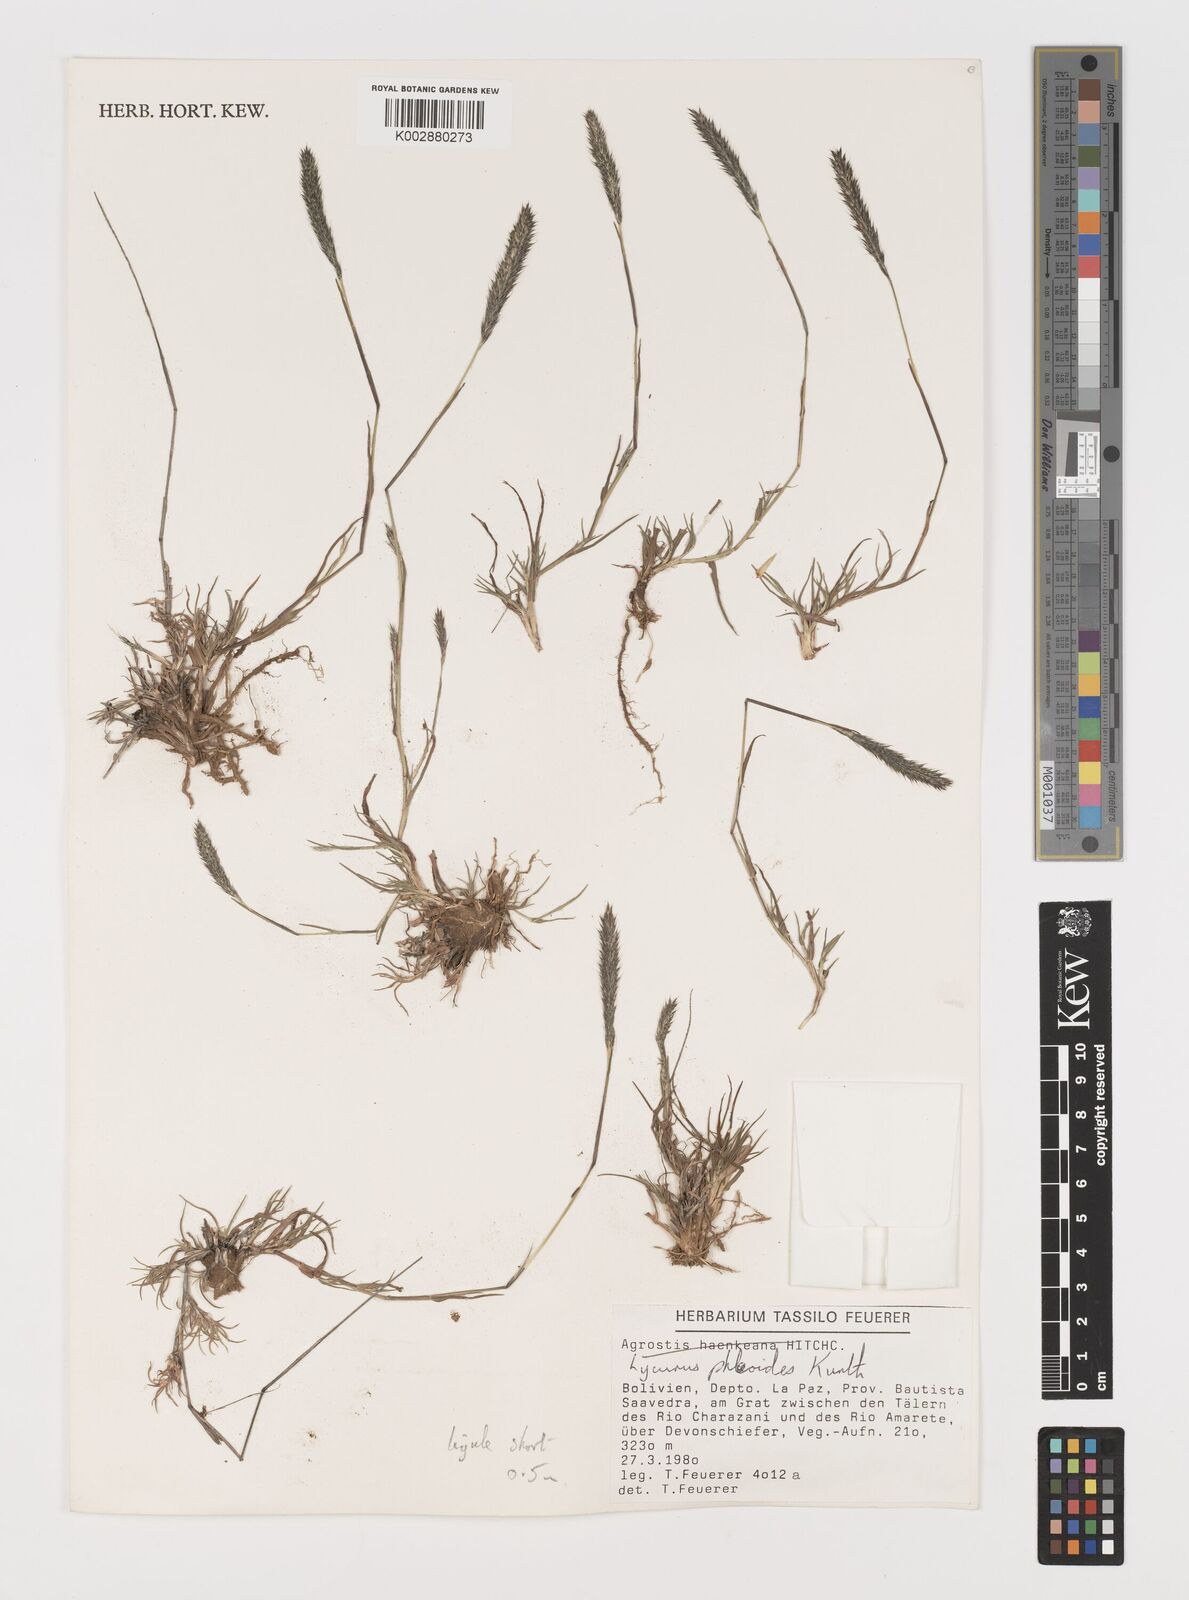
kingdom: Plantae
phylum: Tracheophyta
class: Liliopsida
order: Poales
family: Poaceae
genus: Muhlenbergia
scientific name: Muhlenbergia phalaroides
